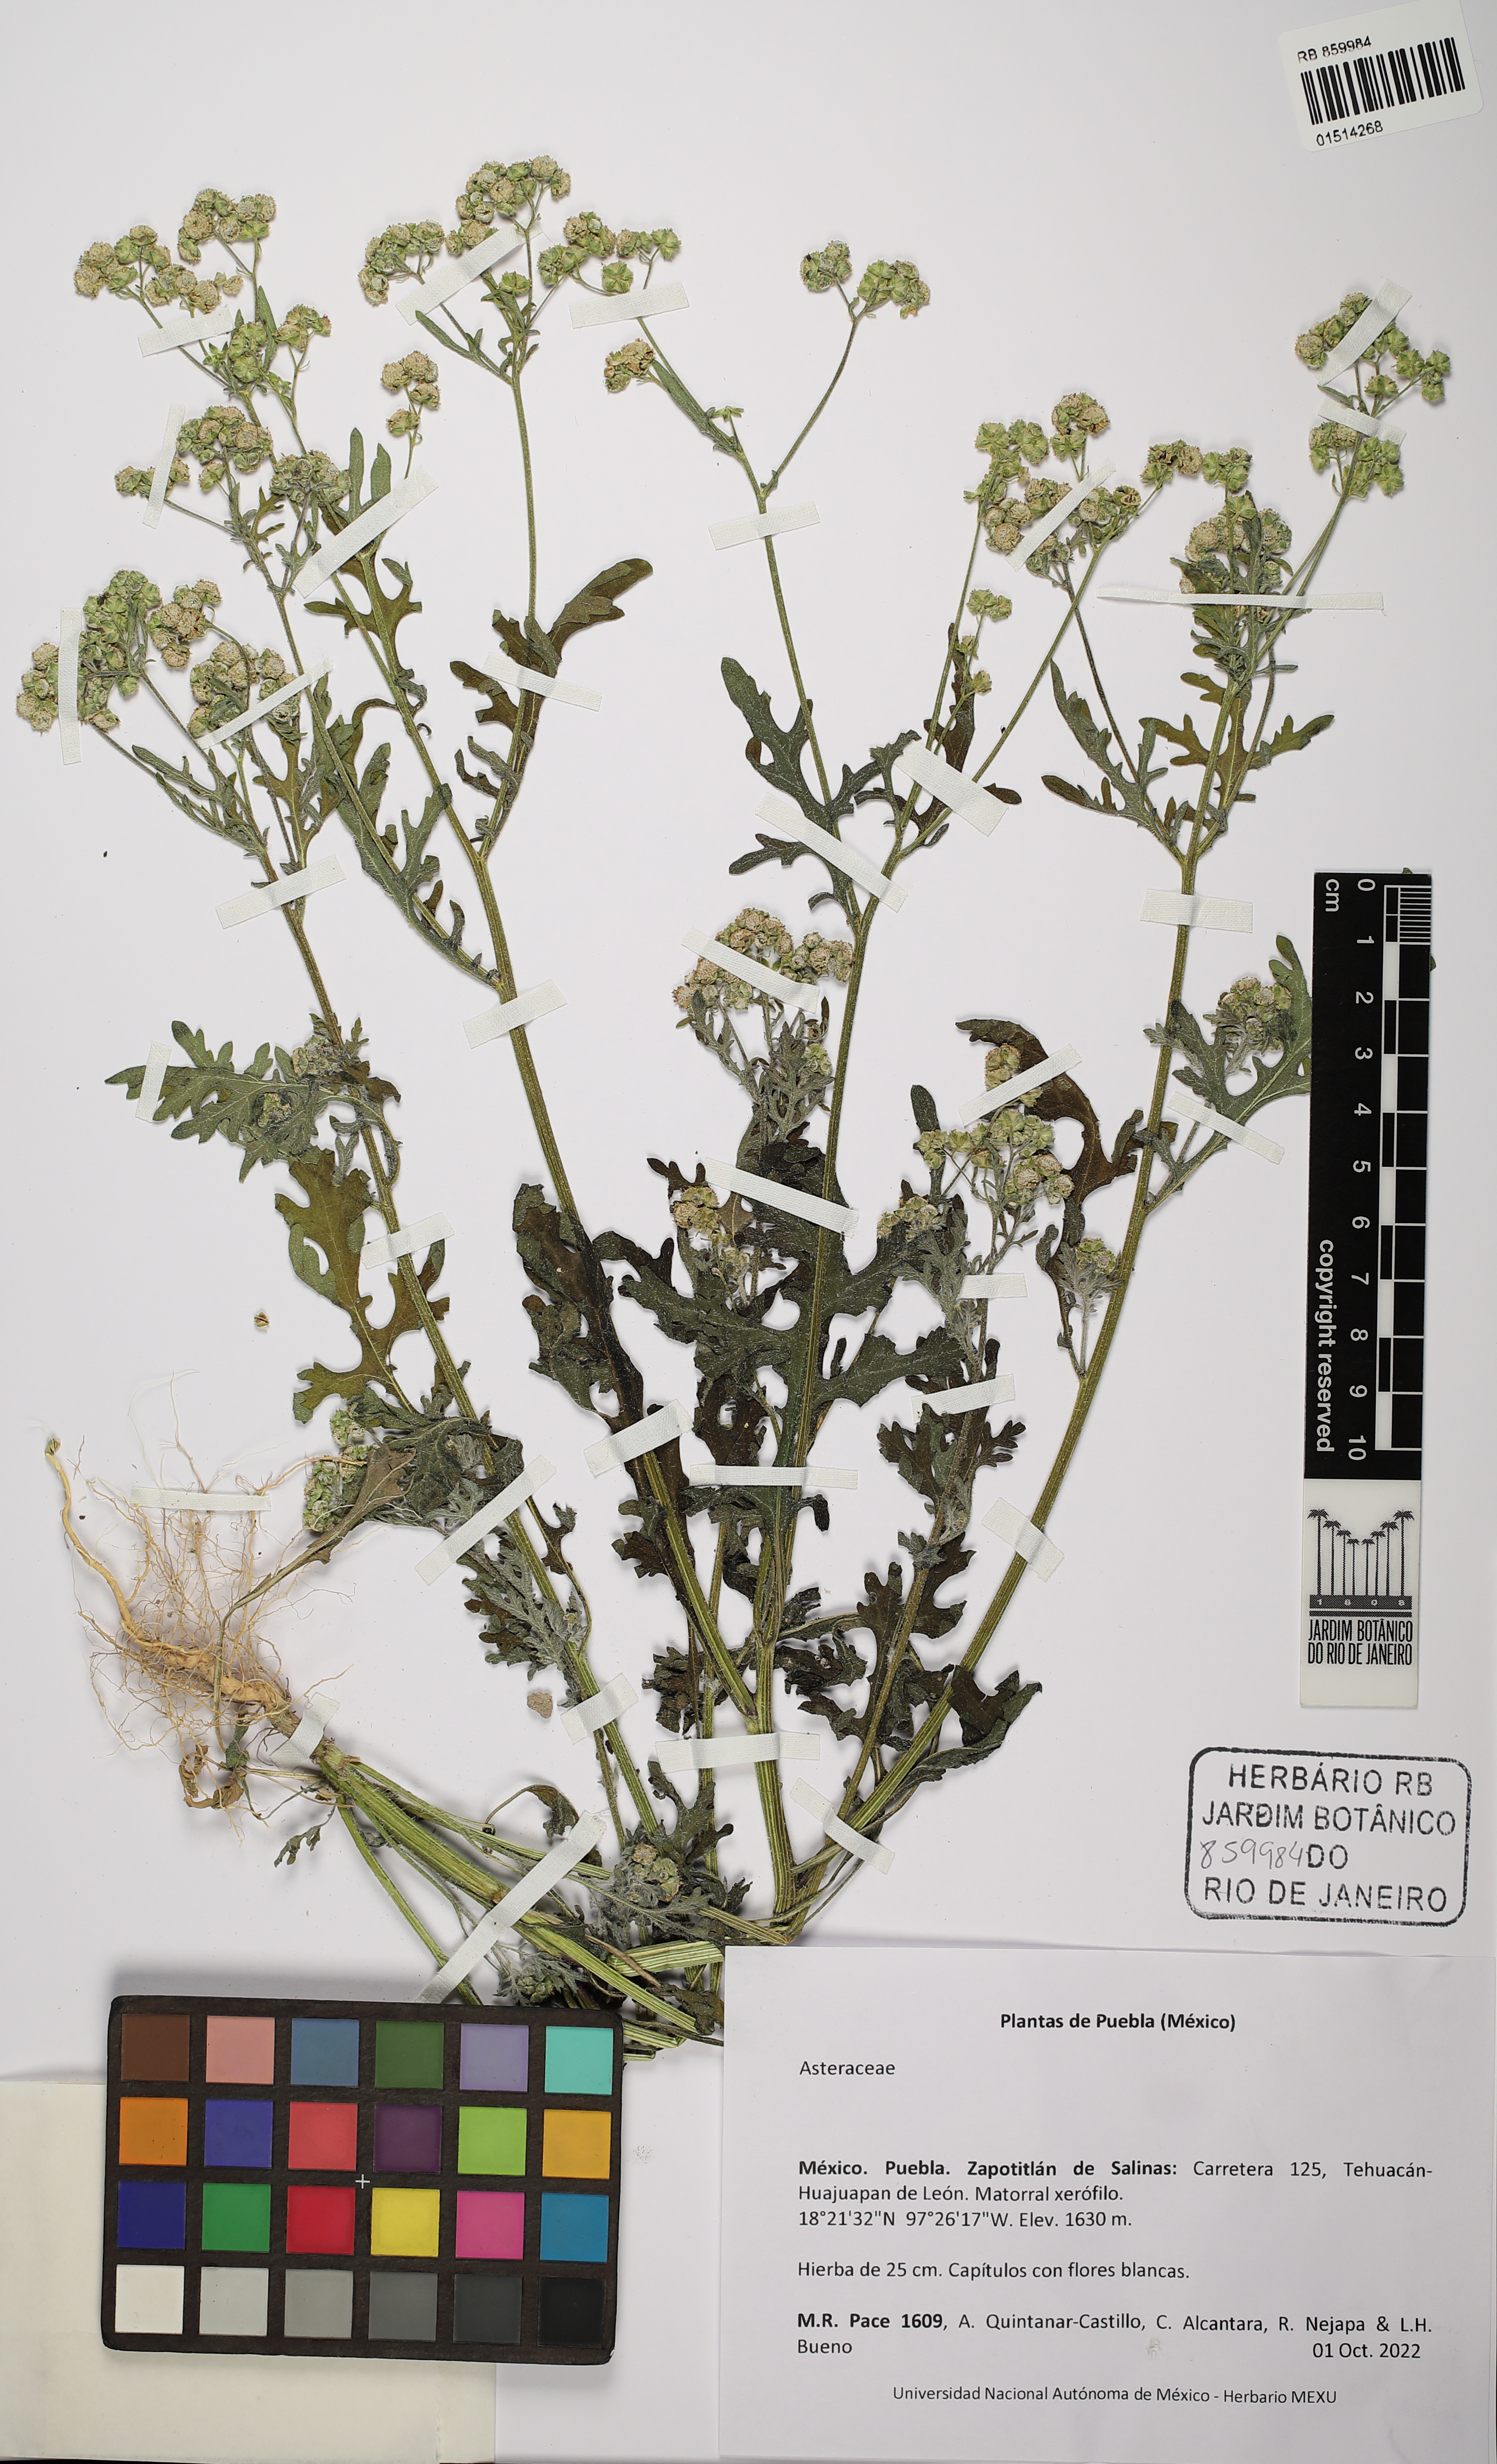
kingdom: Plantae
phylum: Tracheophyta
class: Magnoliopsida
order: Asterales
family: Asteraceae
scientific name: Asteraceae
